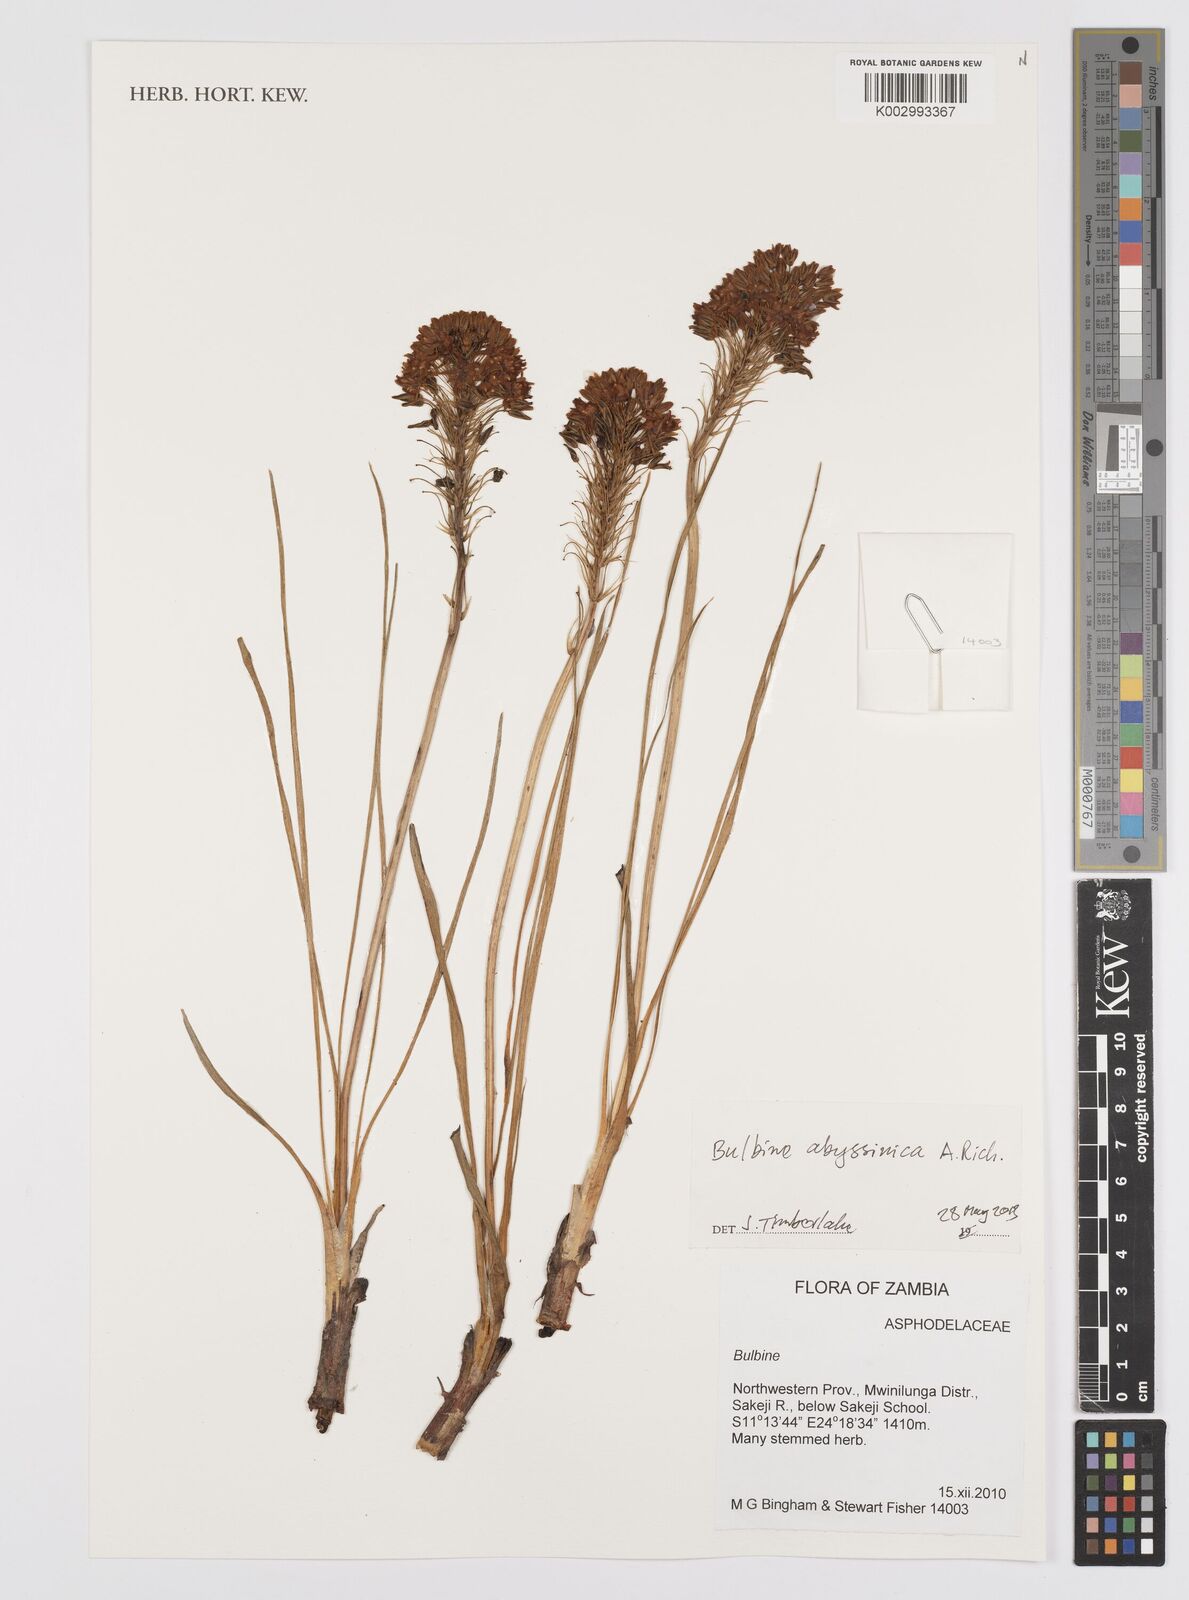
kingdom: Plantae
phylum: Tracheophyta
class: Liliopsida
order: Asparagales
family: Asphodelaceae
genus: Bulbine
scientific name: Bulbine abyssinica
